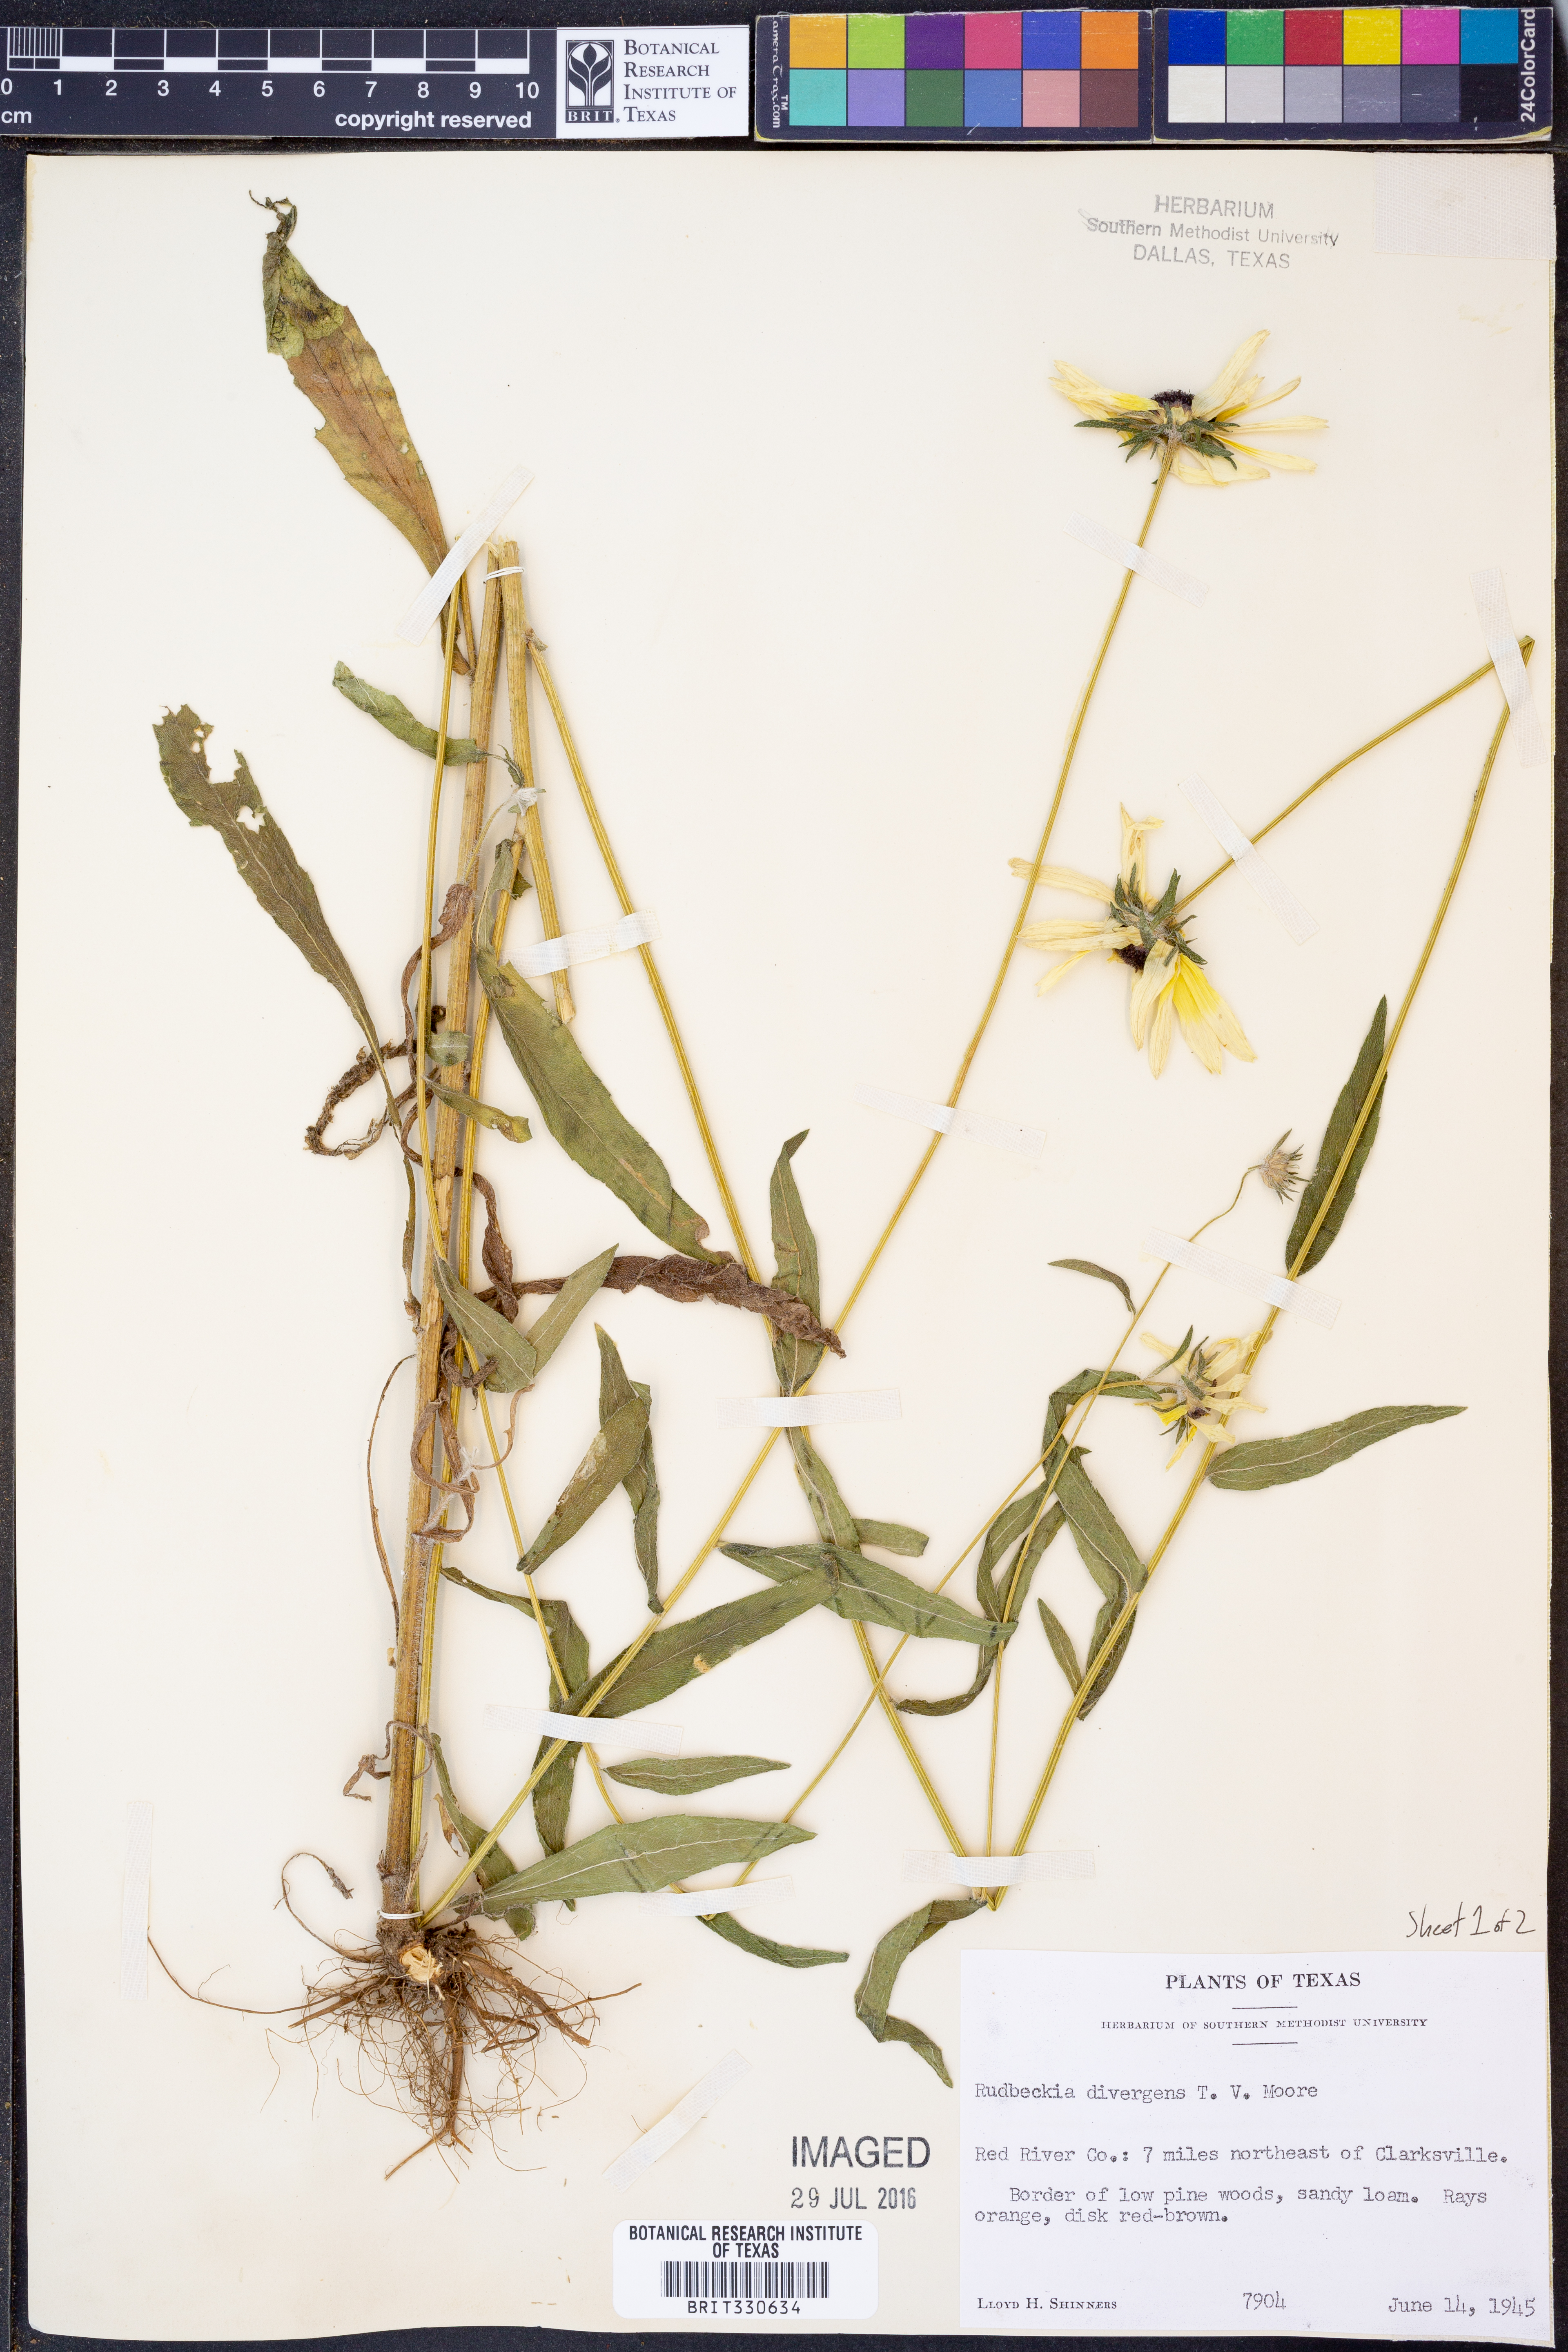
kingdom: Plantae
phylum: Tracheophyta
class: Magnoliopsida
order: Asterales
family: Asteraceae
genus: Rudbeckia
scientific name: Rudbeckia hirta
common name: Black-eyed-susan
